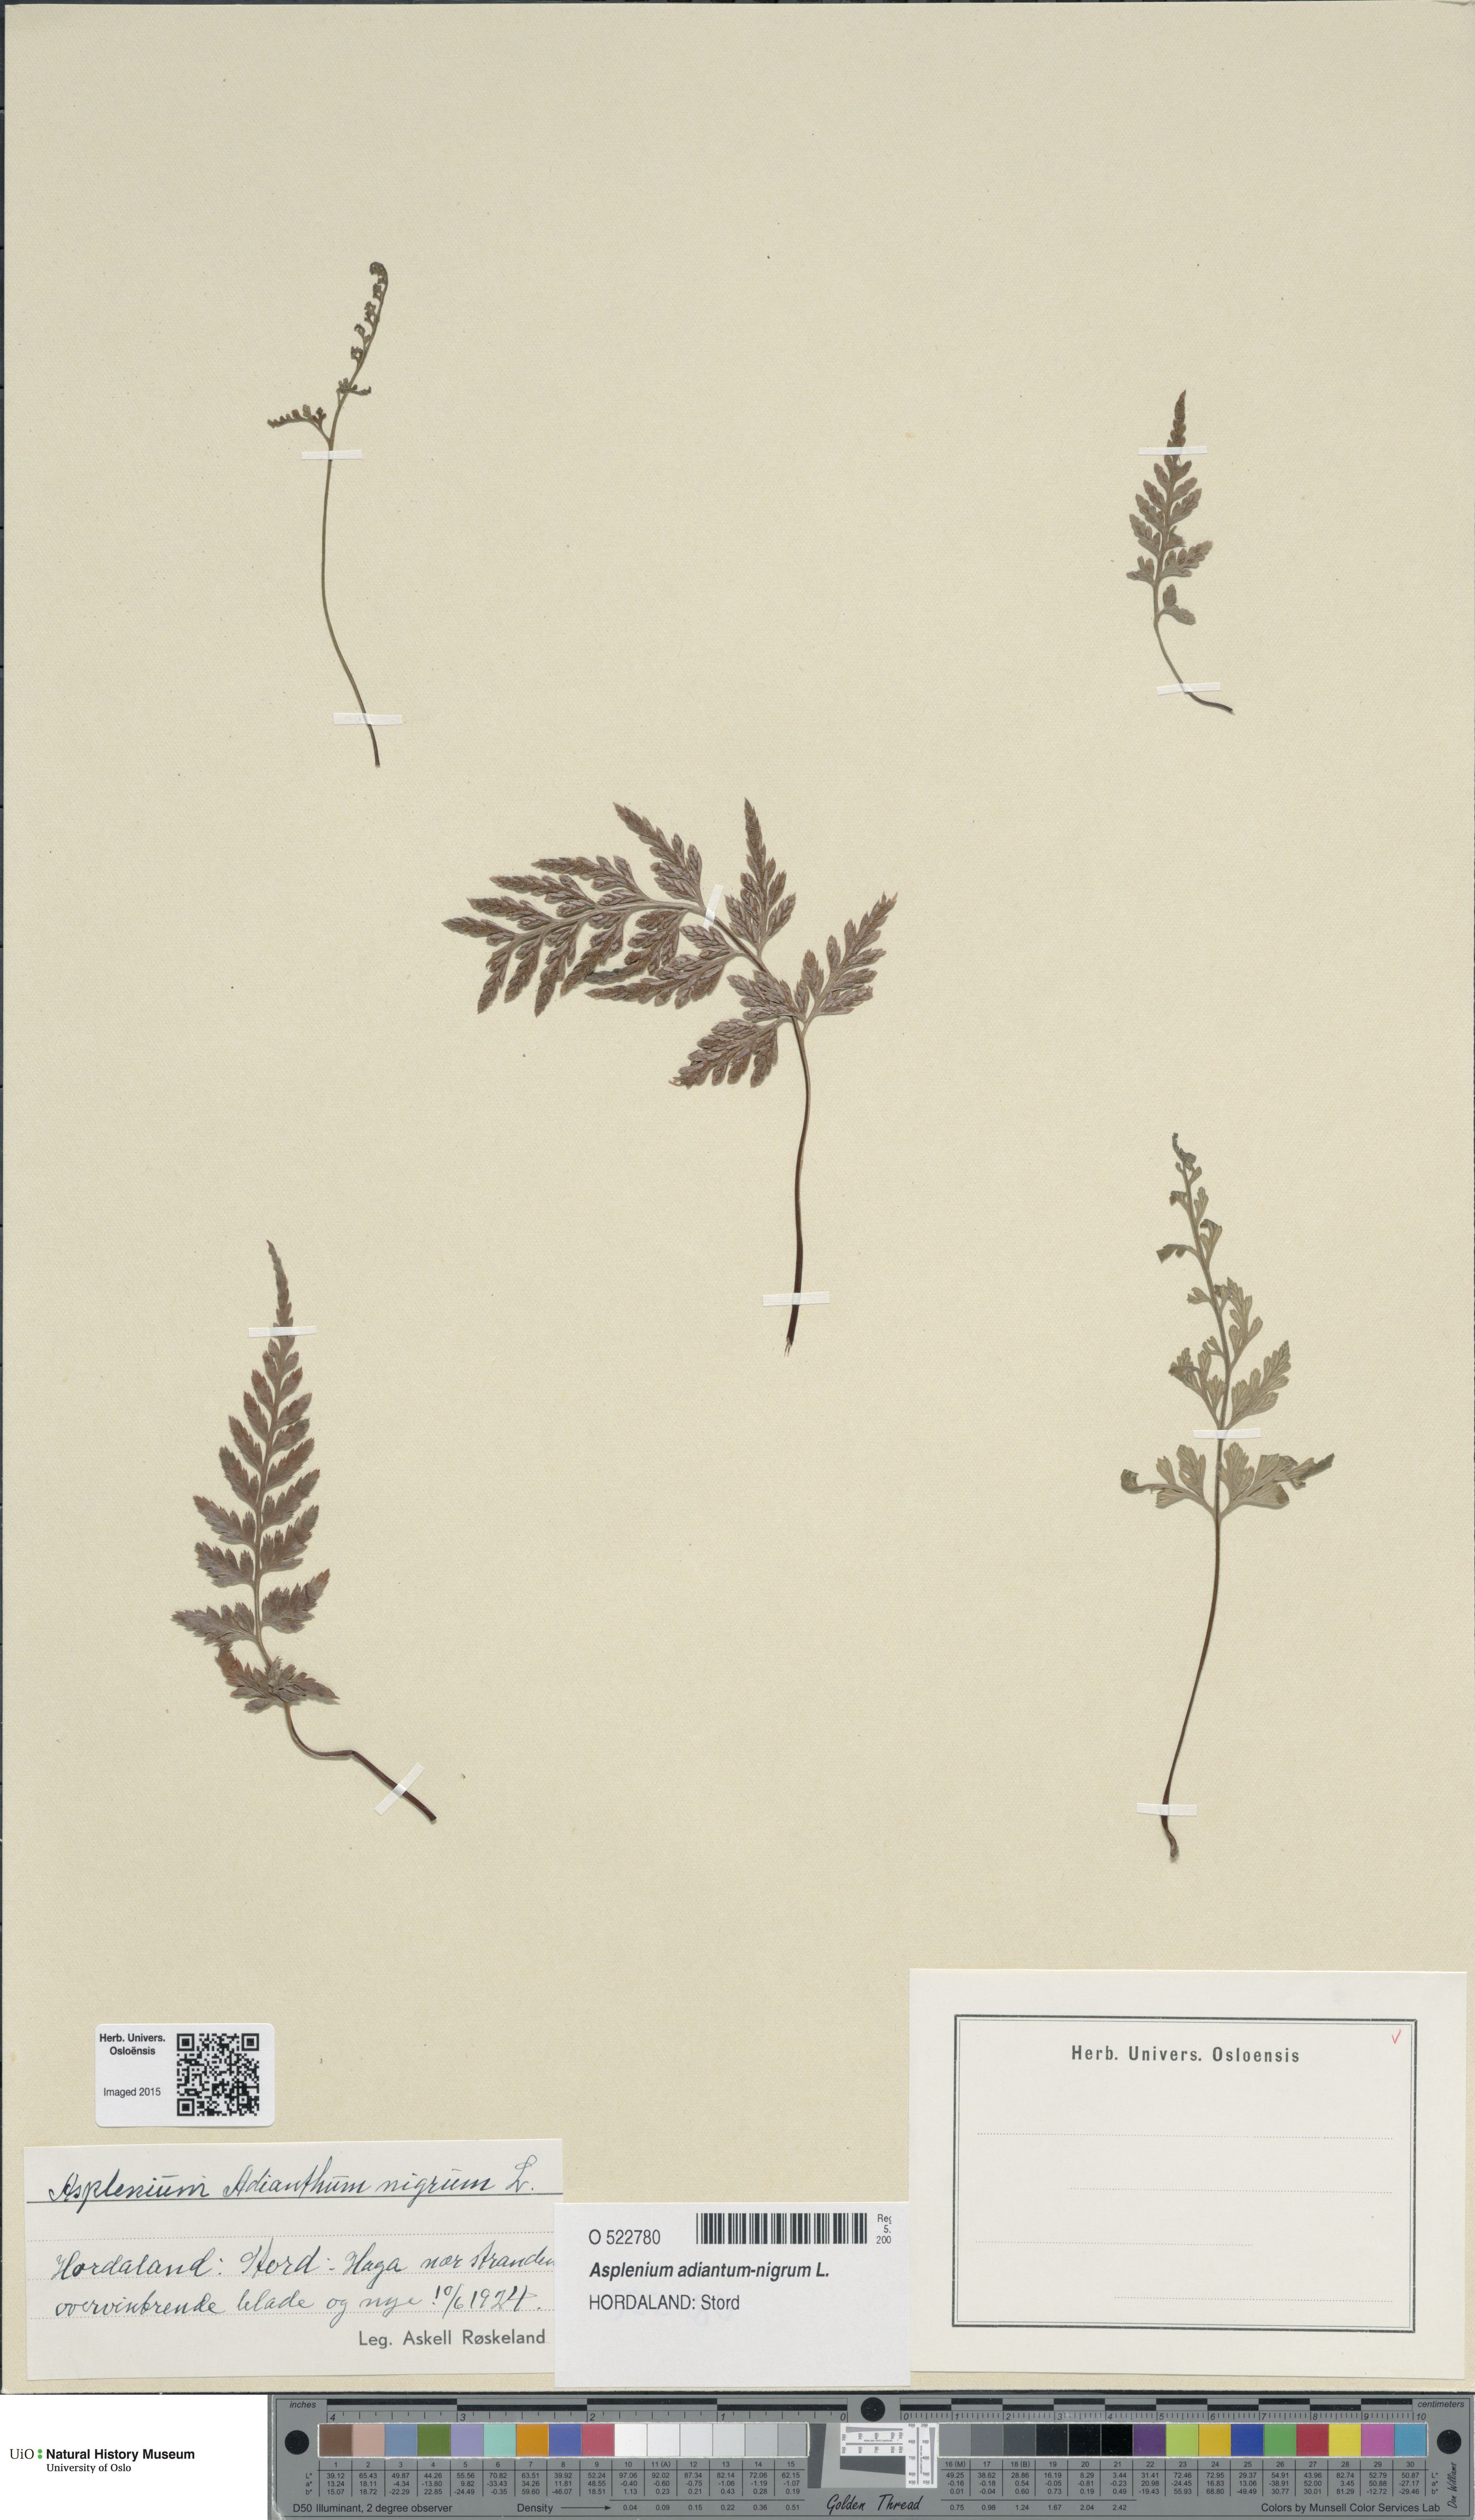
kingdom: Plantae
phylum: Tracheophyta
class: Polypodiopsida
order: Polypodiales
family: Aspleniaceae
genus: Asplenium
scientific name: Asplenium adiantum-nigrum
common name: Black spleenwort
